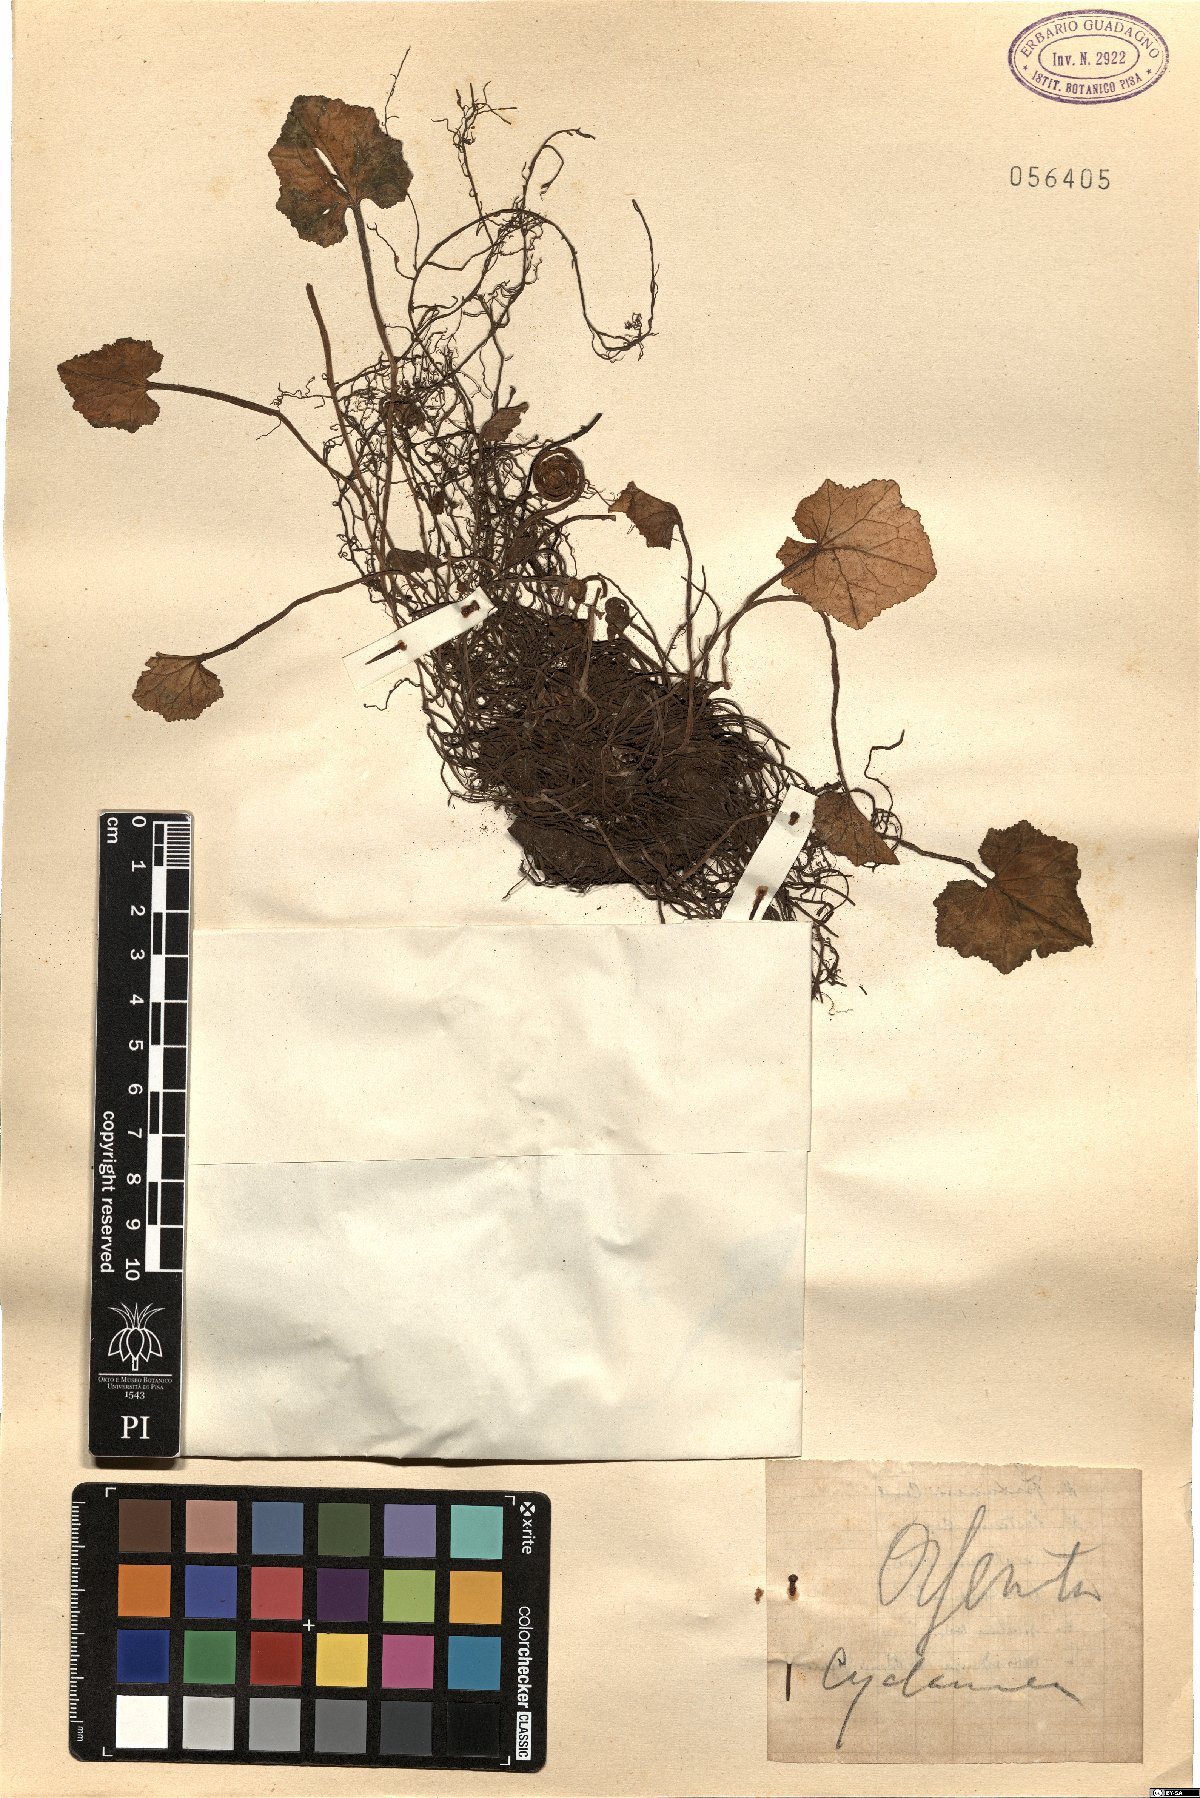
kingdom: Plantae
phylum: Tracheophyta
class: Magnoliopsida
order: Ericales
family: Primulaceae
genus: Cyclamen
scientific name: Cyclamen
